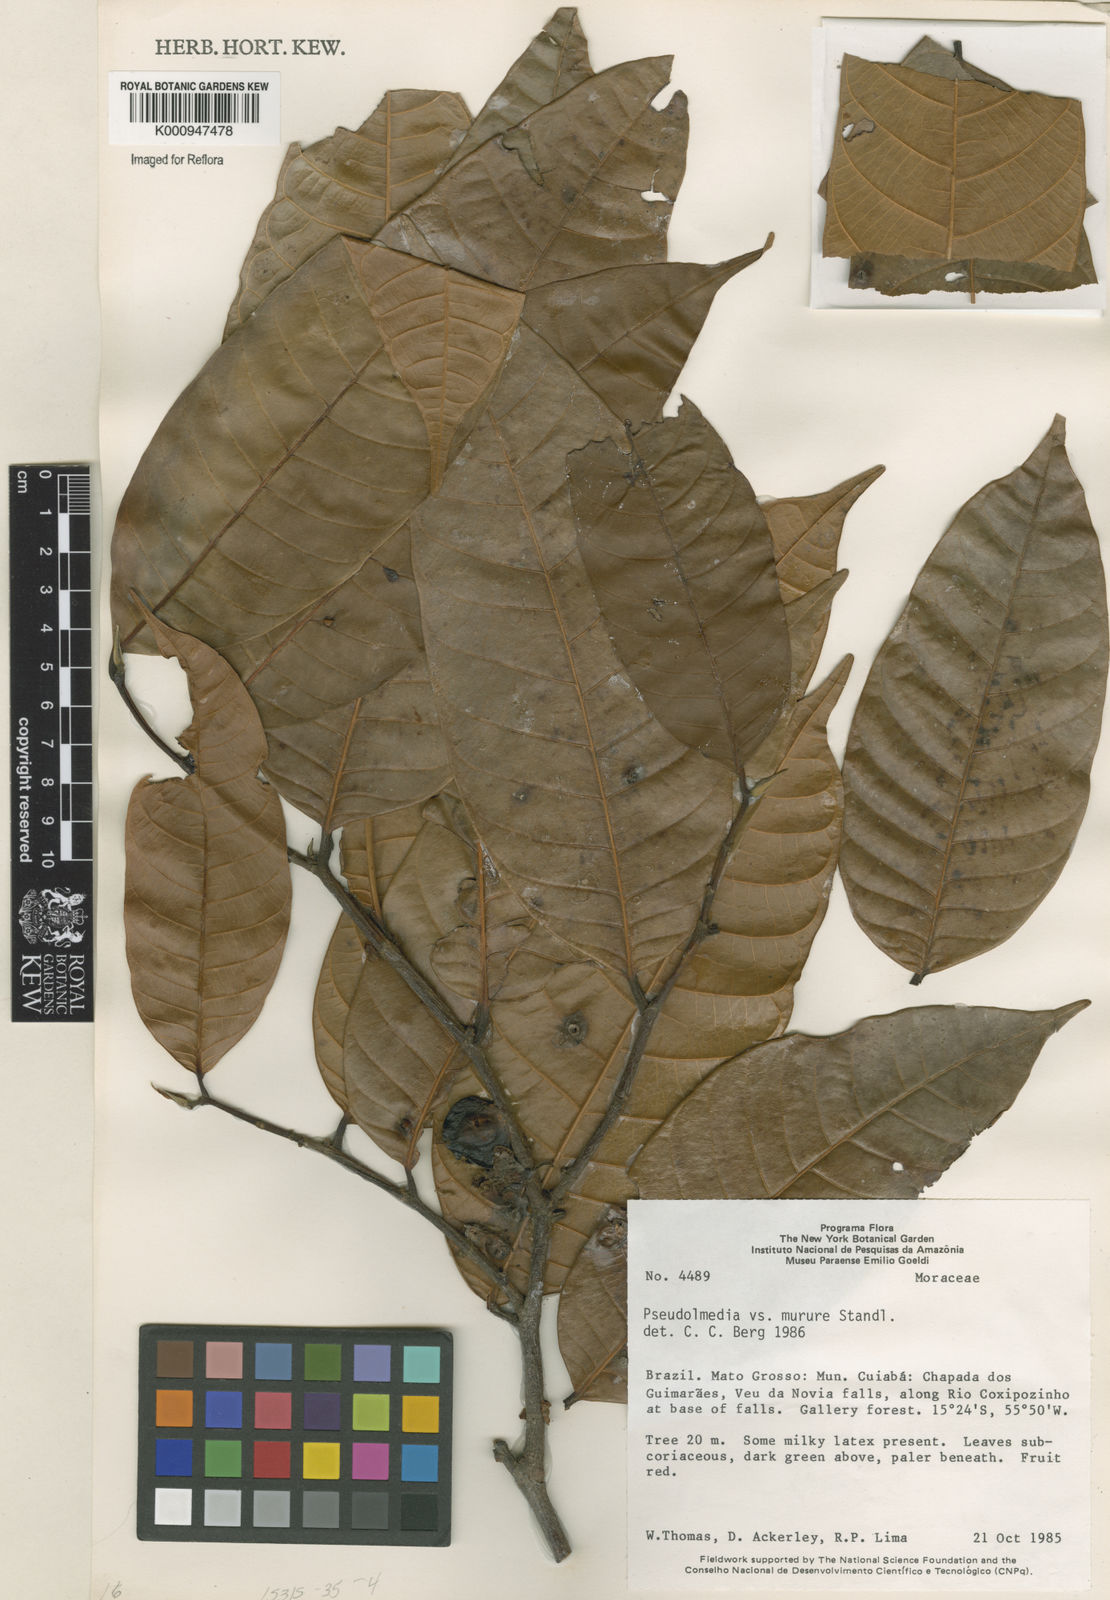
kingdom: Plantae
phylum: Tracheophyta
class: Magnoliopsida
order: Rosales
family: Moraceae
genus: Pseudolmedia
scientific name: Pseudolmedia macrophylla
